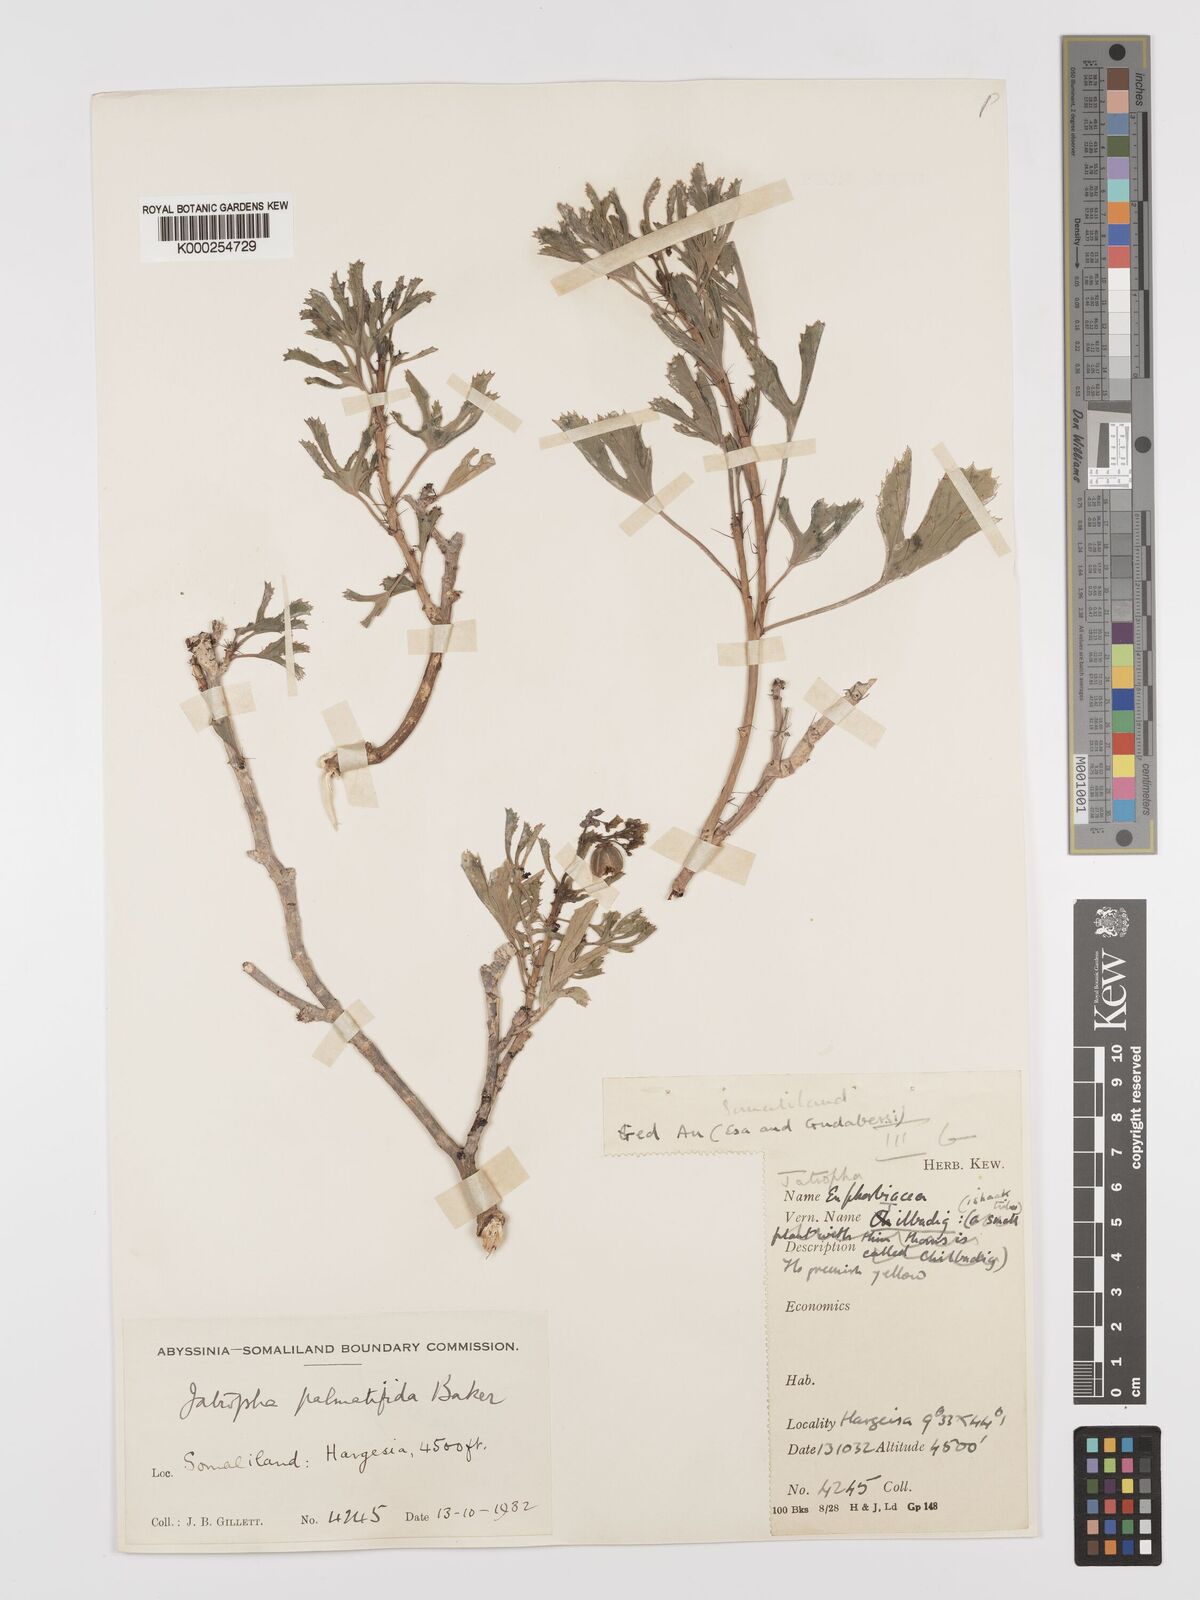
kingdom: Plantae
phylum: Tracheophyta
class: Magnoliopsida
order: Malpighiales
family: Euphorbiaceae
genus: Jatropha
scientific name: Jatropha palmatifida
